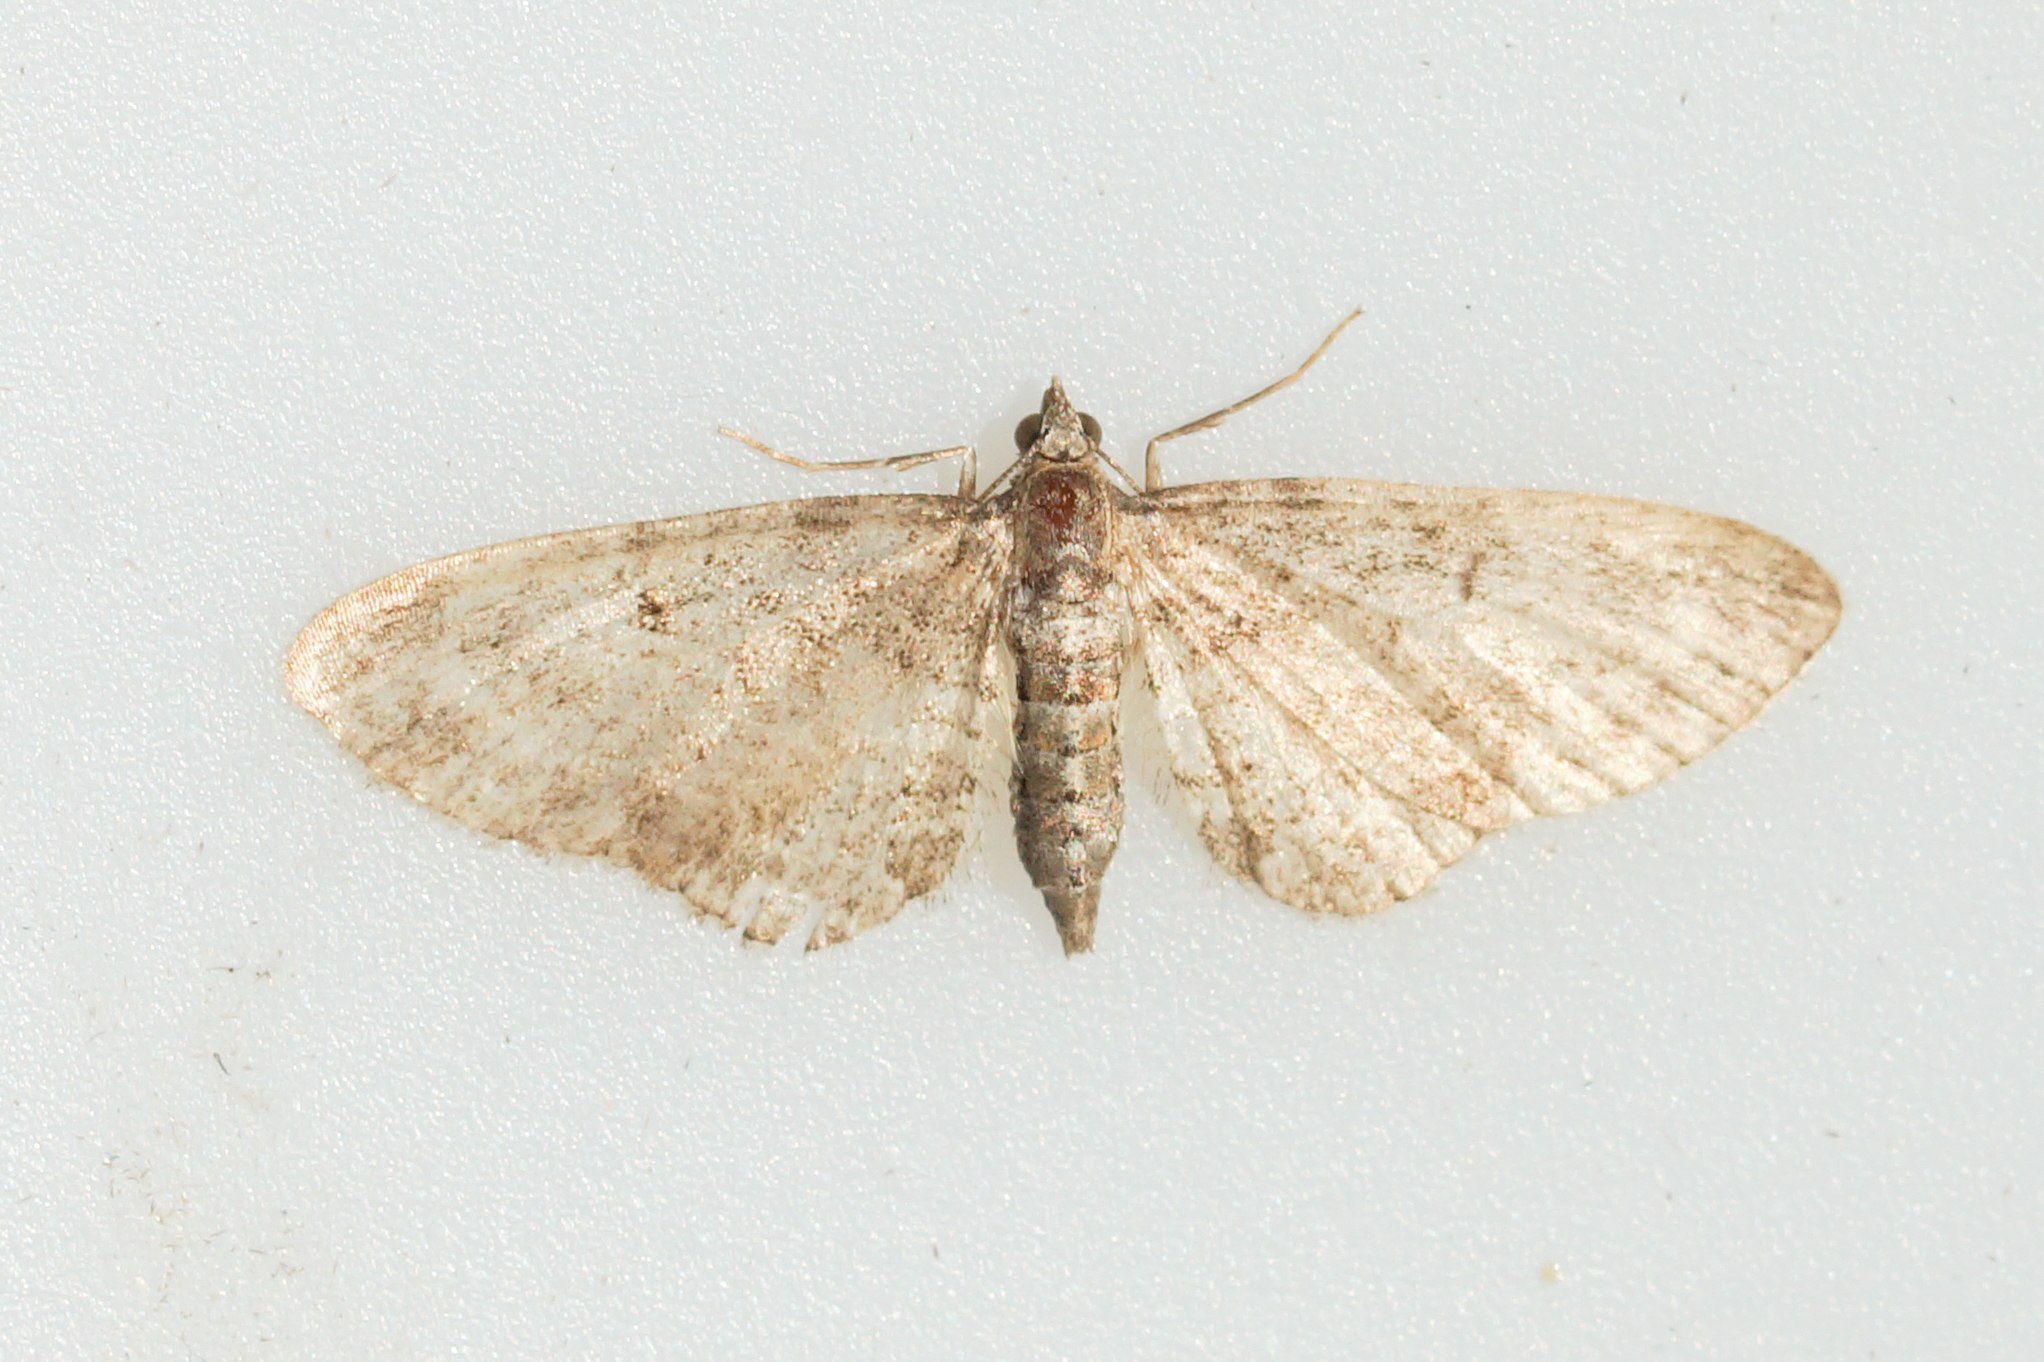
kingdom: Animalia
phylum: Arthropoda
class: Insecta
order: Lepidoptera
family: Geometridae
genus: Eupithecia
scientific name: Eupithecia
